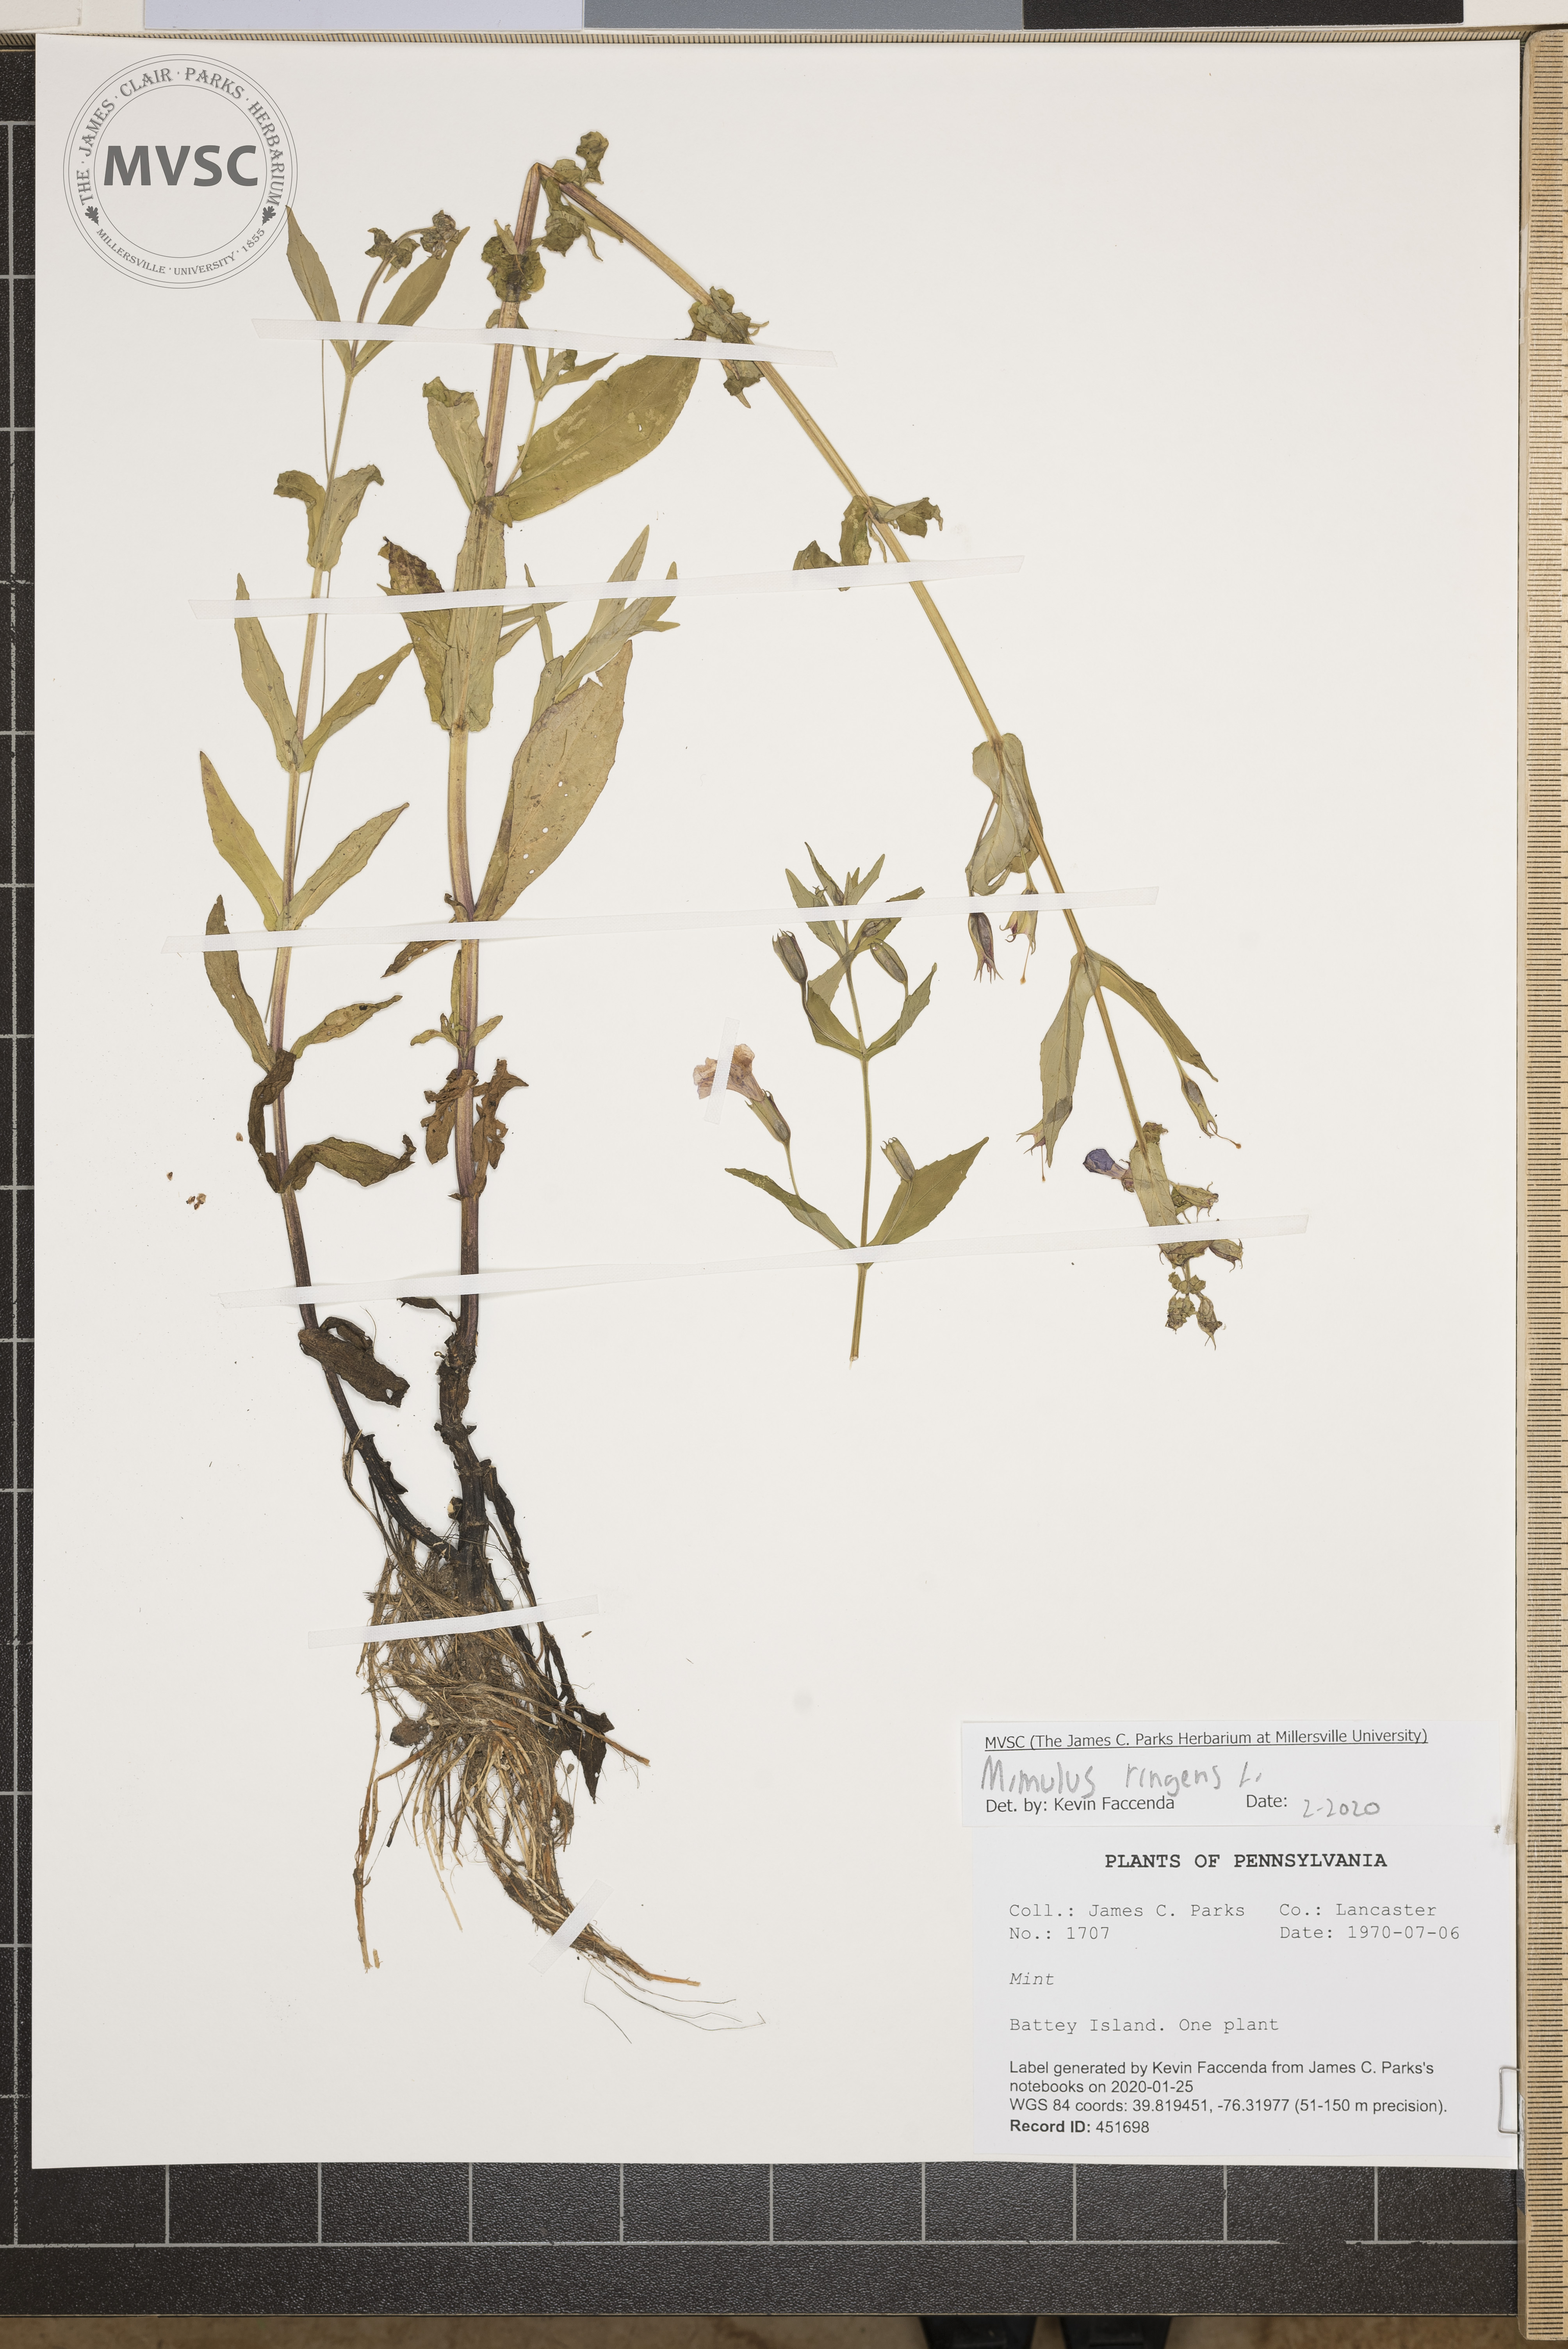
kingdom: Plantae
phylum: Tracheophyta
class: Magnoliopsida
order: Lamiales
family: Phrymaceae
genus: Mimulus
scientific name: Mimulus ringens
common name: Allegheny monkeyflower
